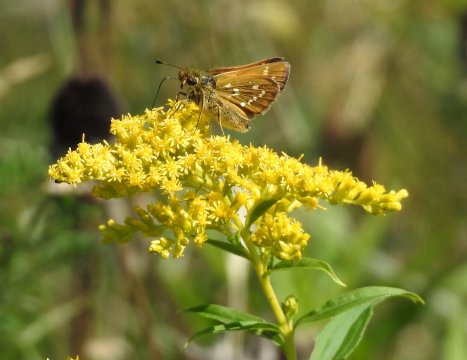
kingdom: Animalia
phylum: Arthropoda
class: Insecta
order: Lepidoptera
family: Hesperiidae
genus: Hesperia
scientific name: Hesperia comma
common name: Common Branded Skipper
